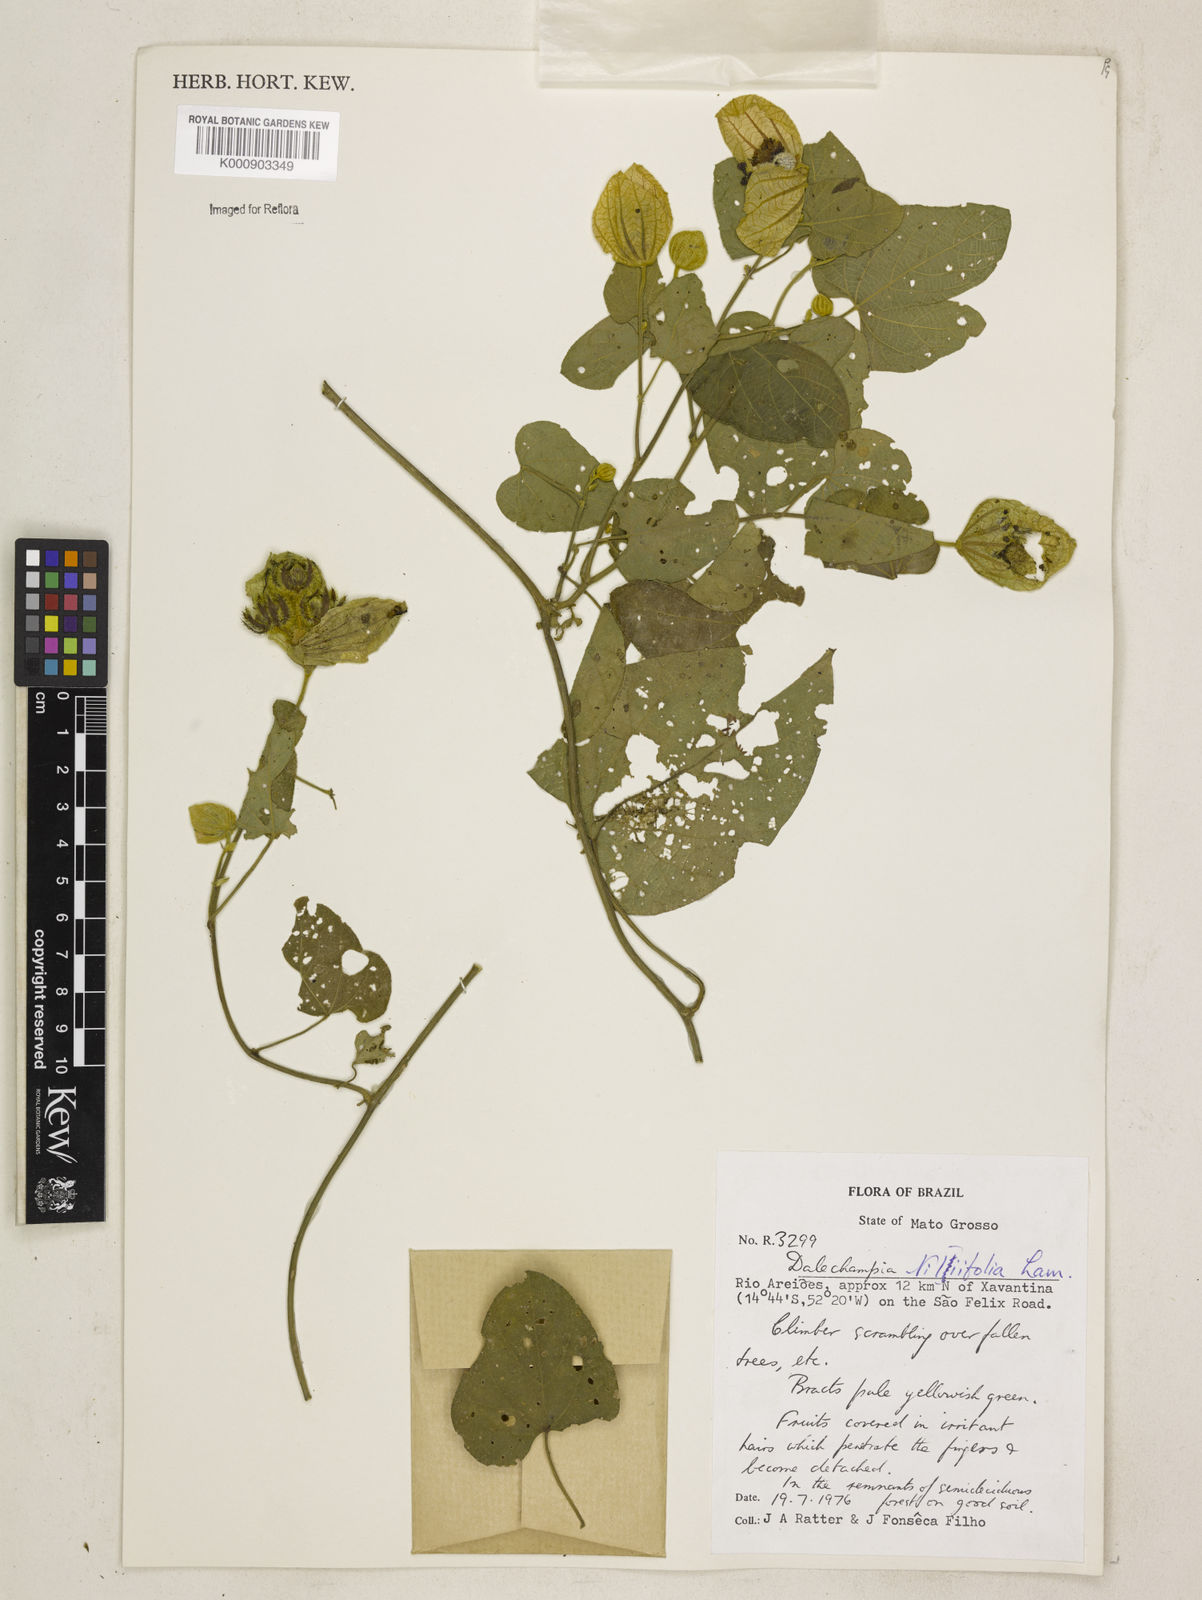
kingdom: Plantae
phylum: Tracheophyta
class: Magnoliopsida
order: Malpighiales
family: Euphorbiaceae
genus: Dalechampia
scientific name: Dalechampia tiliifolia
